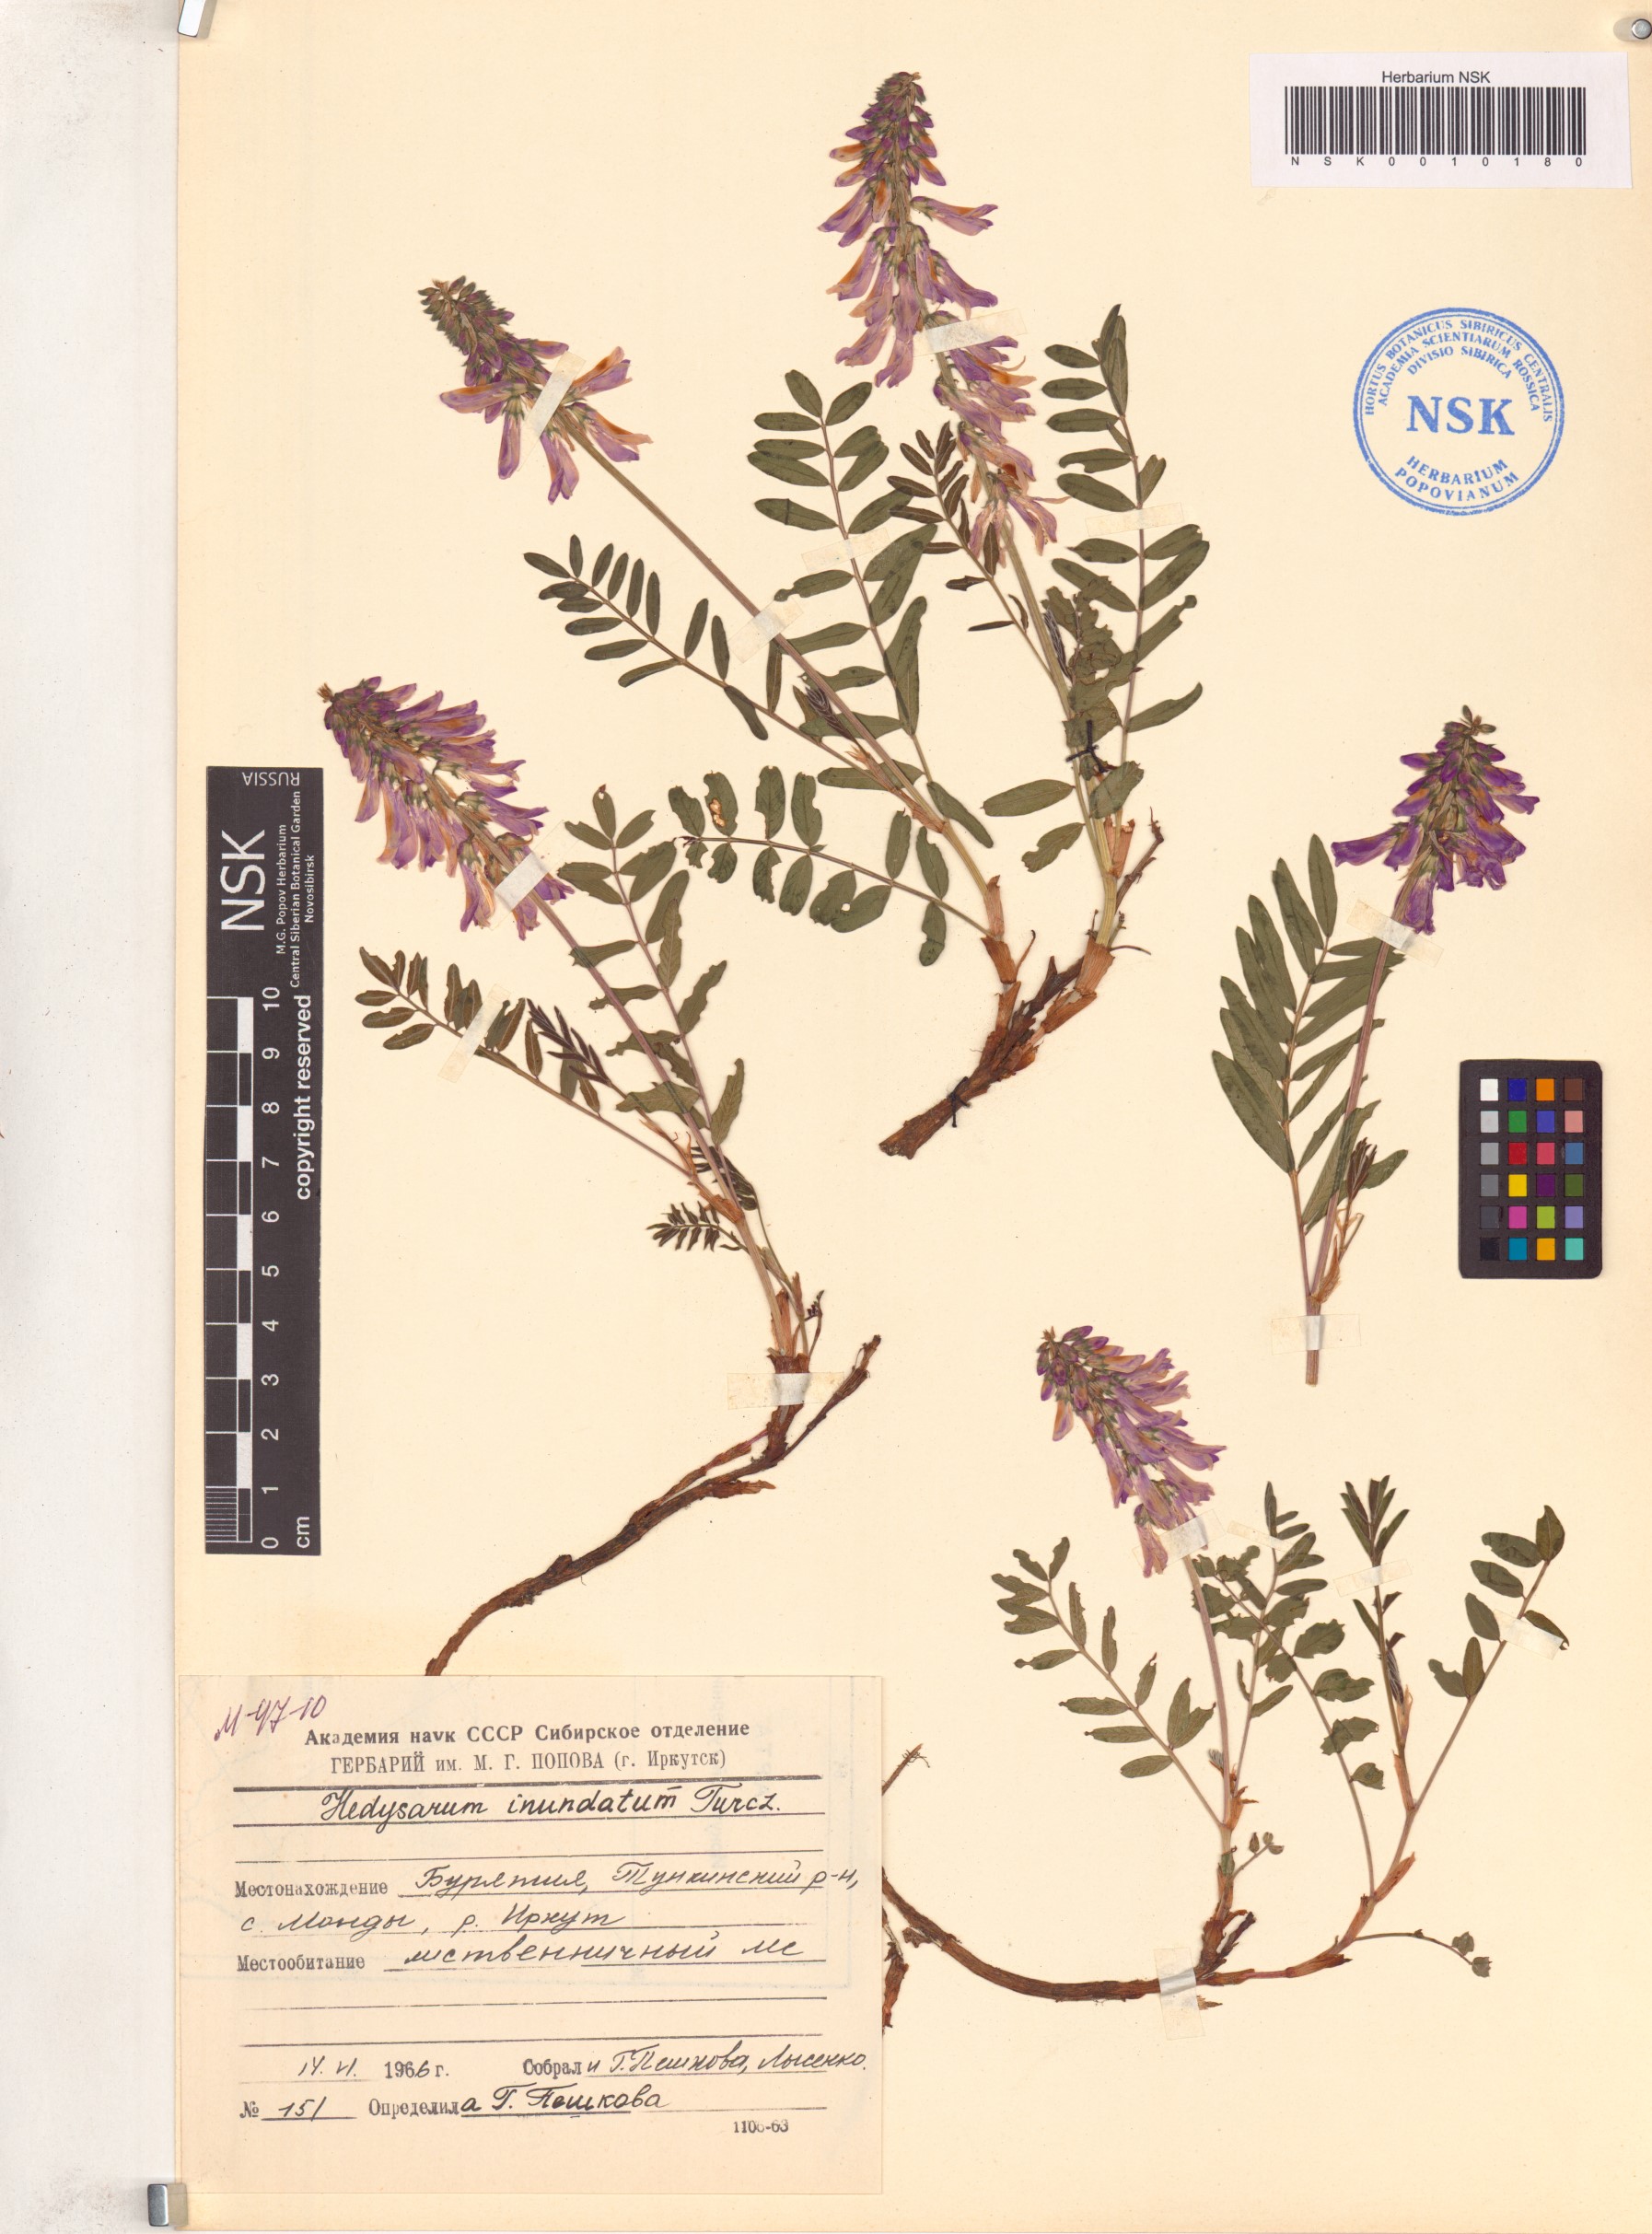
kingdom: Plantae
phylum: Tracheophyta
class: Magnoliopsida
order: Fabales
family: Fabaceae
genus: Hedysarum
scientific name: Hedysarum inundatum
